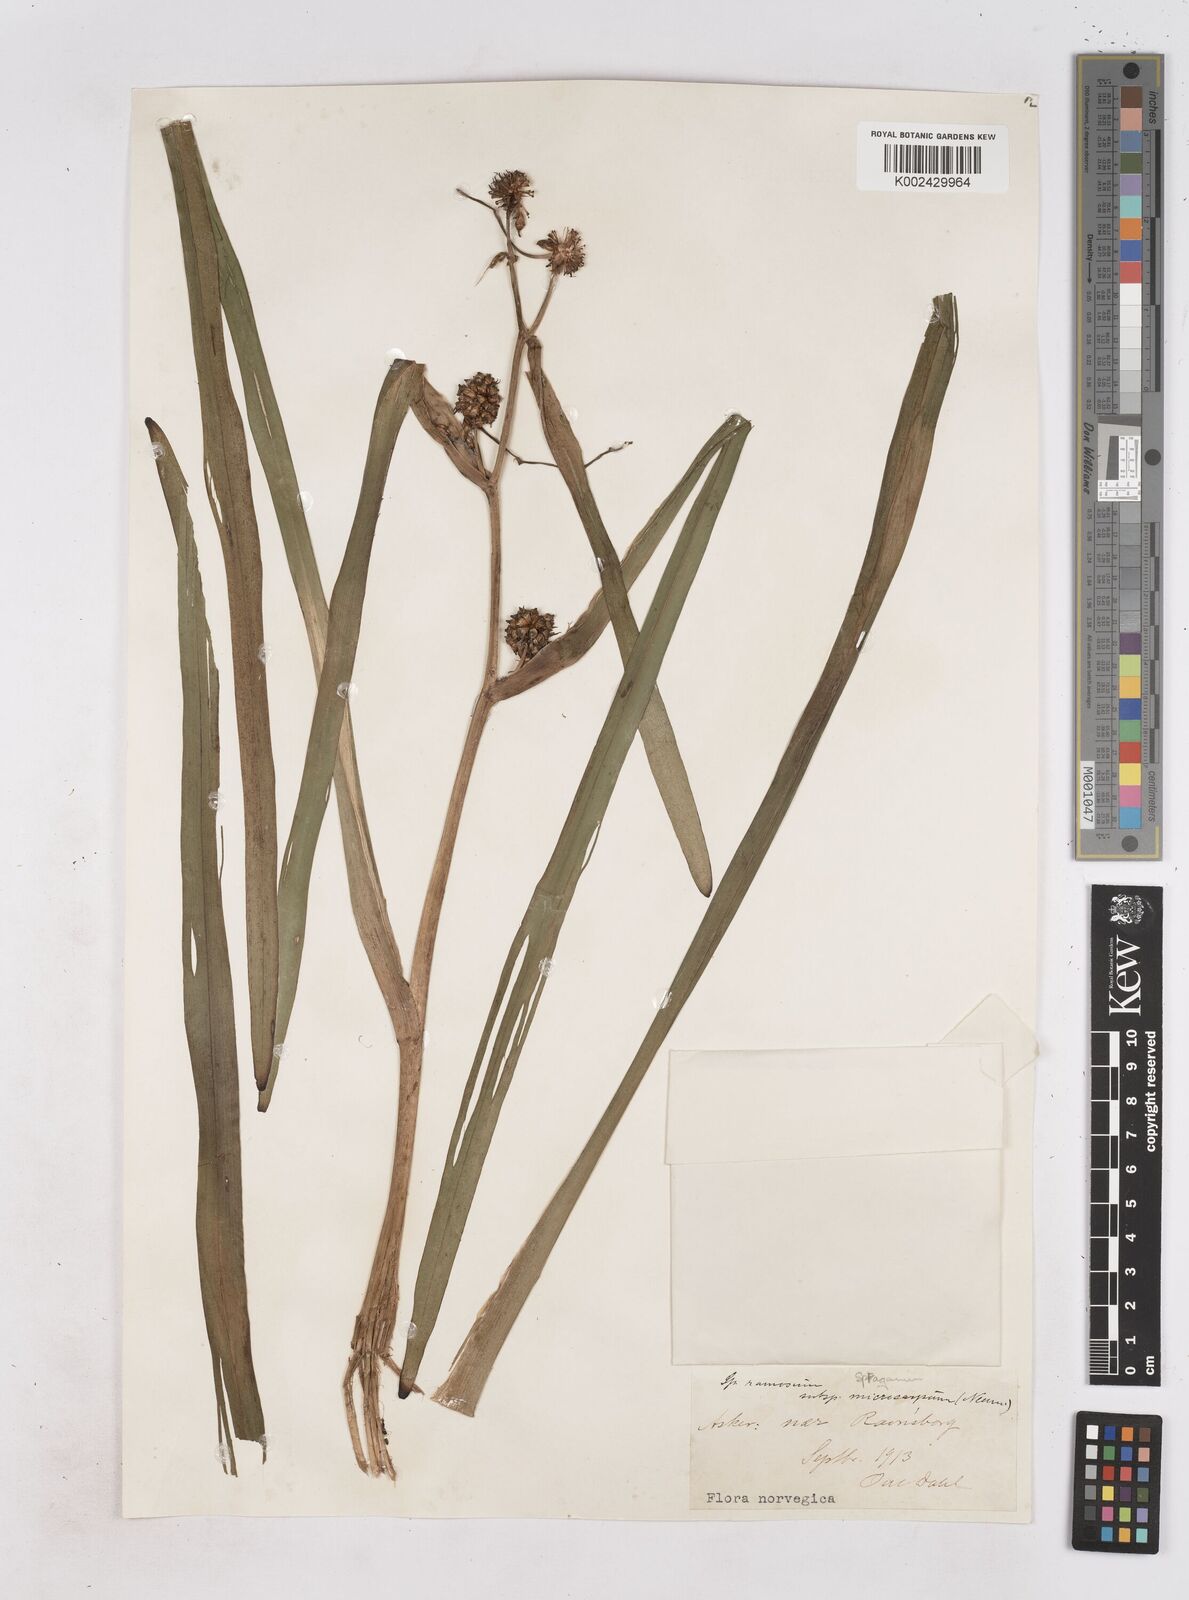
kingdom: Plantae
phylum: Tracheophyta
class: Liliopsida
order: Poales
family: Typhaceae
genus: Sparganium
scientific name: Sparganium erectum
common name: Branched bur-reed
